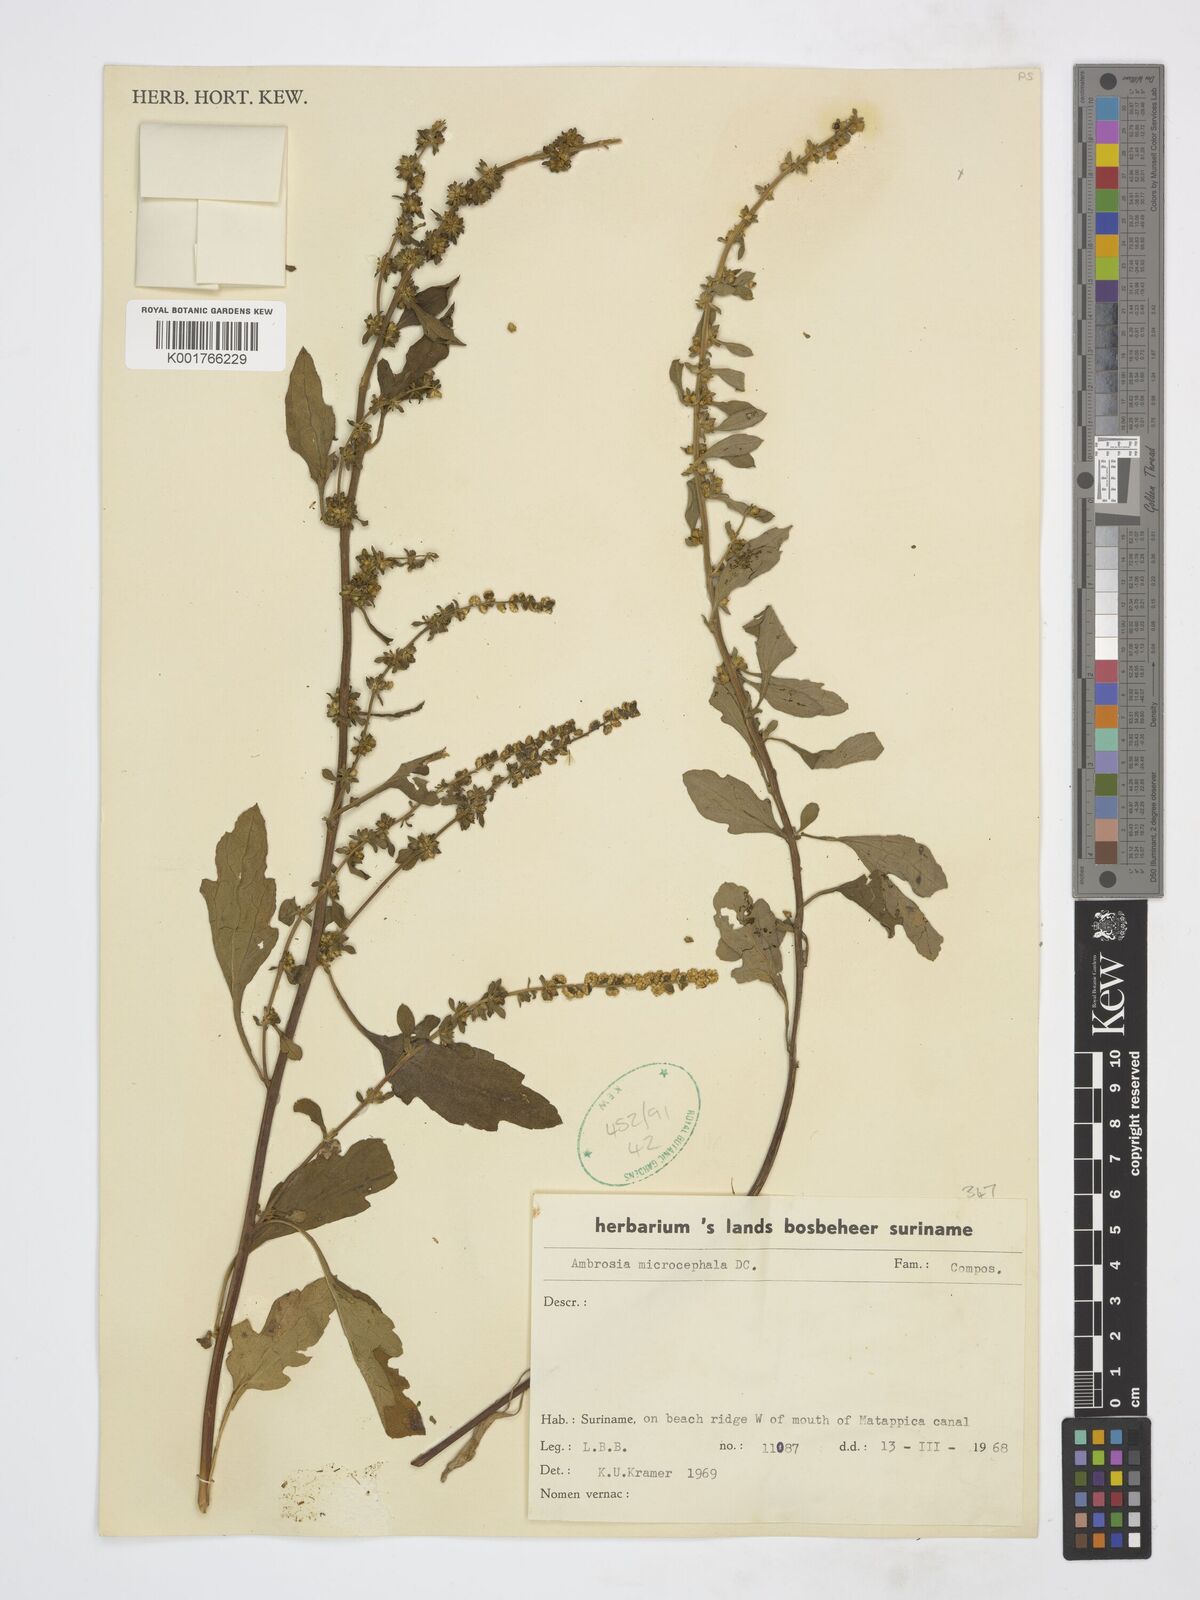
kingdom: Plantae
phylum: Tracheophyta
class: Magnoliopsida
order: Asterales
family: Asteraceae
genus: Ambrosia
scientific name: Ambrosia microcephala
